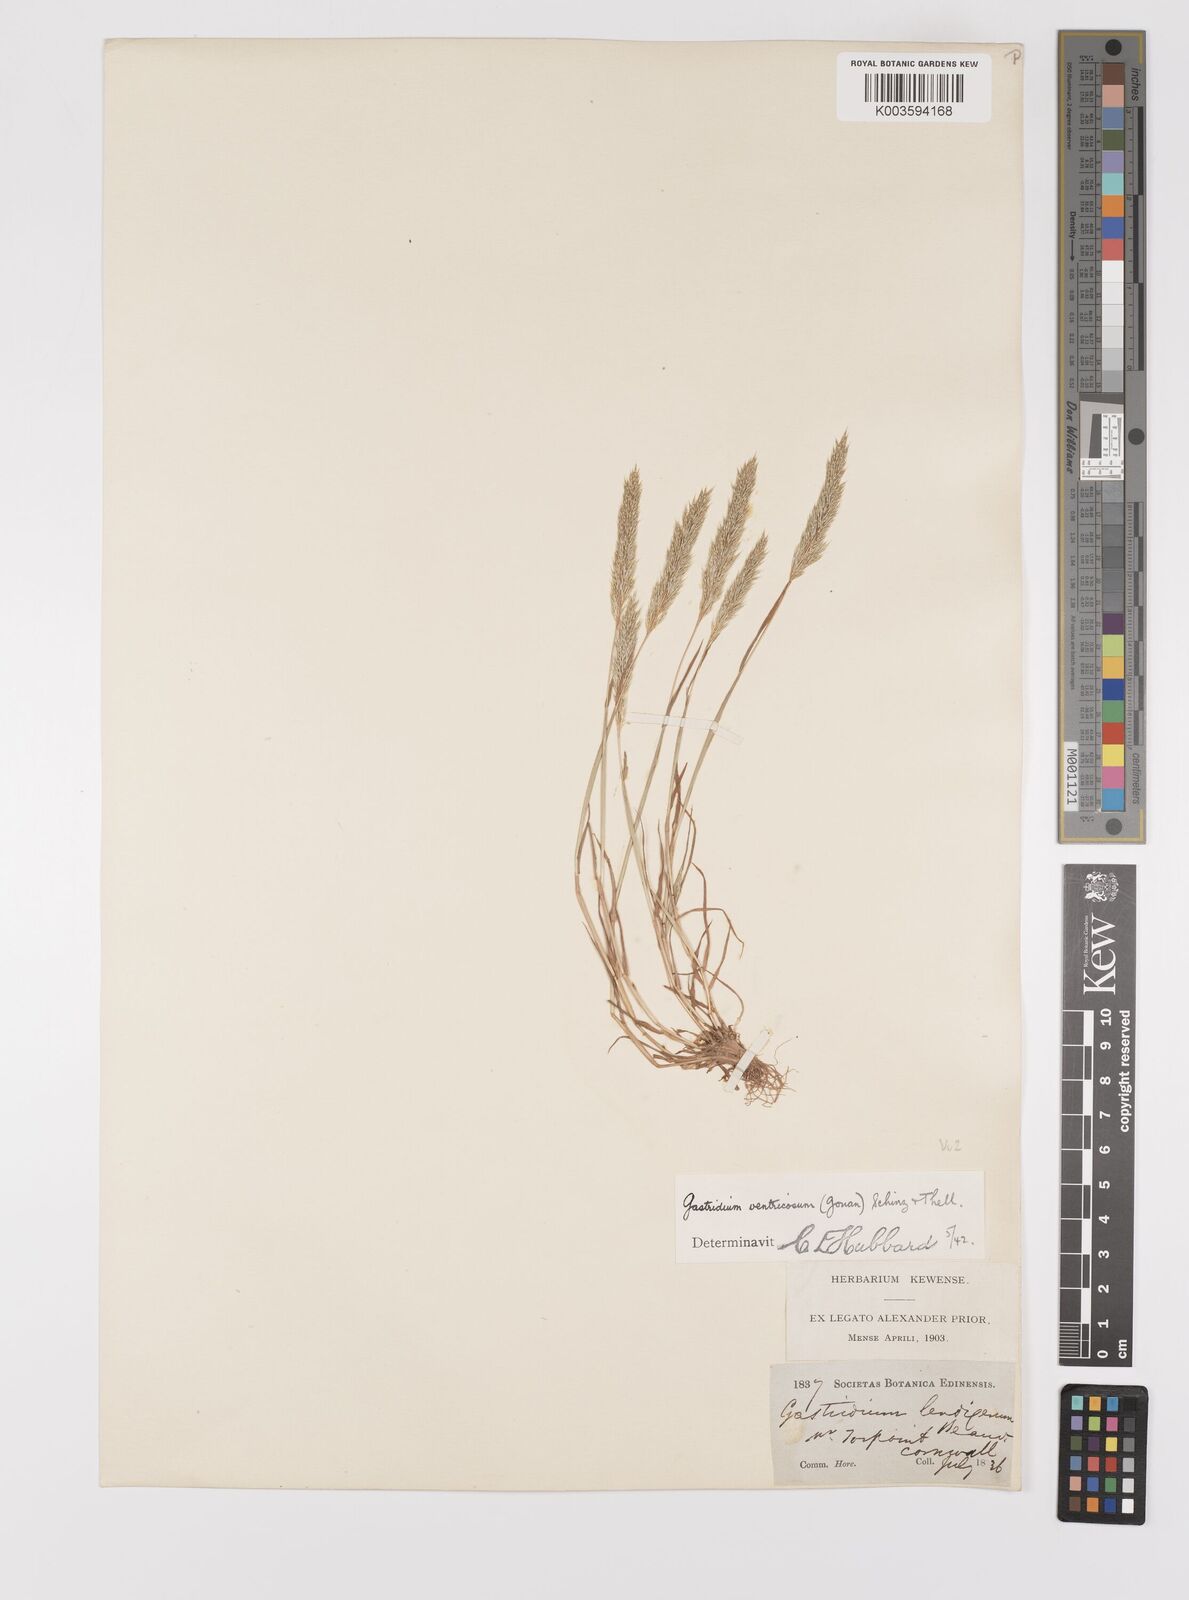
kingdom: Plantae
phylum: Tracheophyta
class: Liliopsida
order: Poales
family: Poaceae
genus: Gastridium
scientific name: Gastridium ventricosum
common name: Nit-grass
